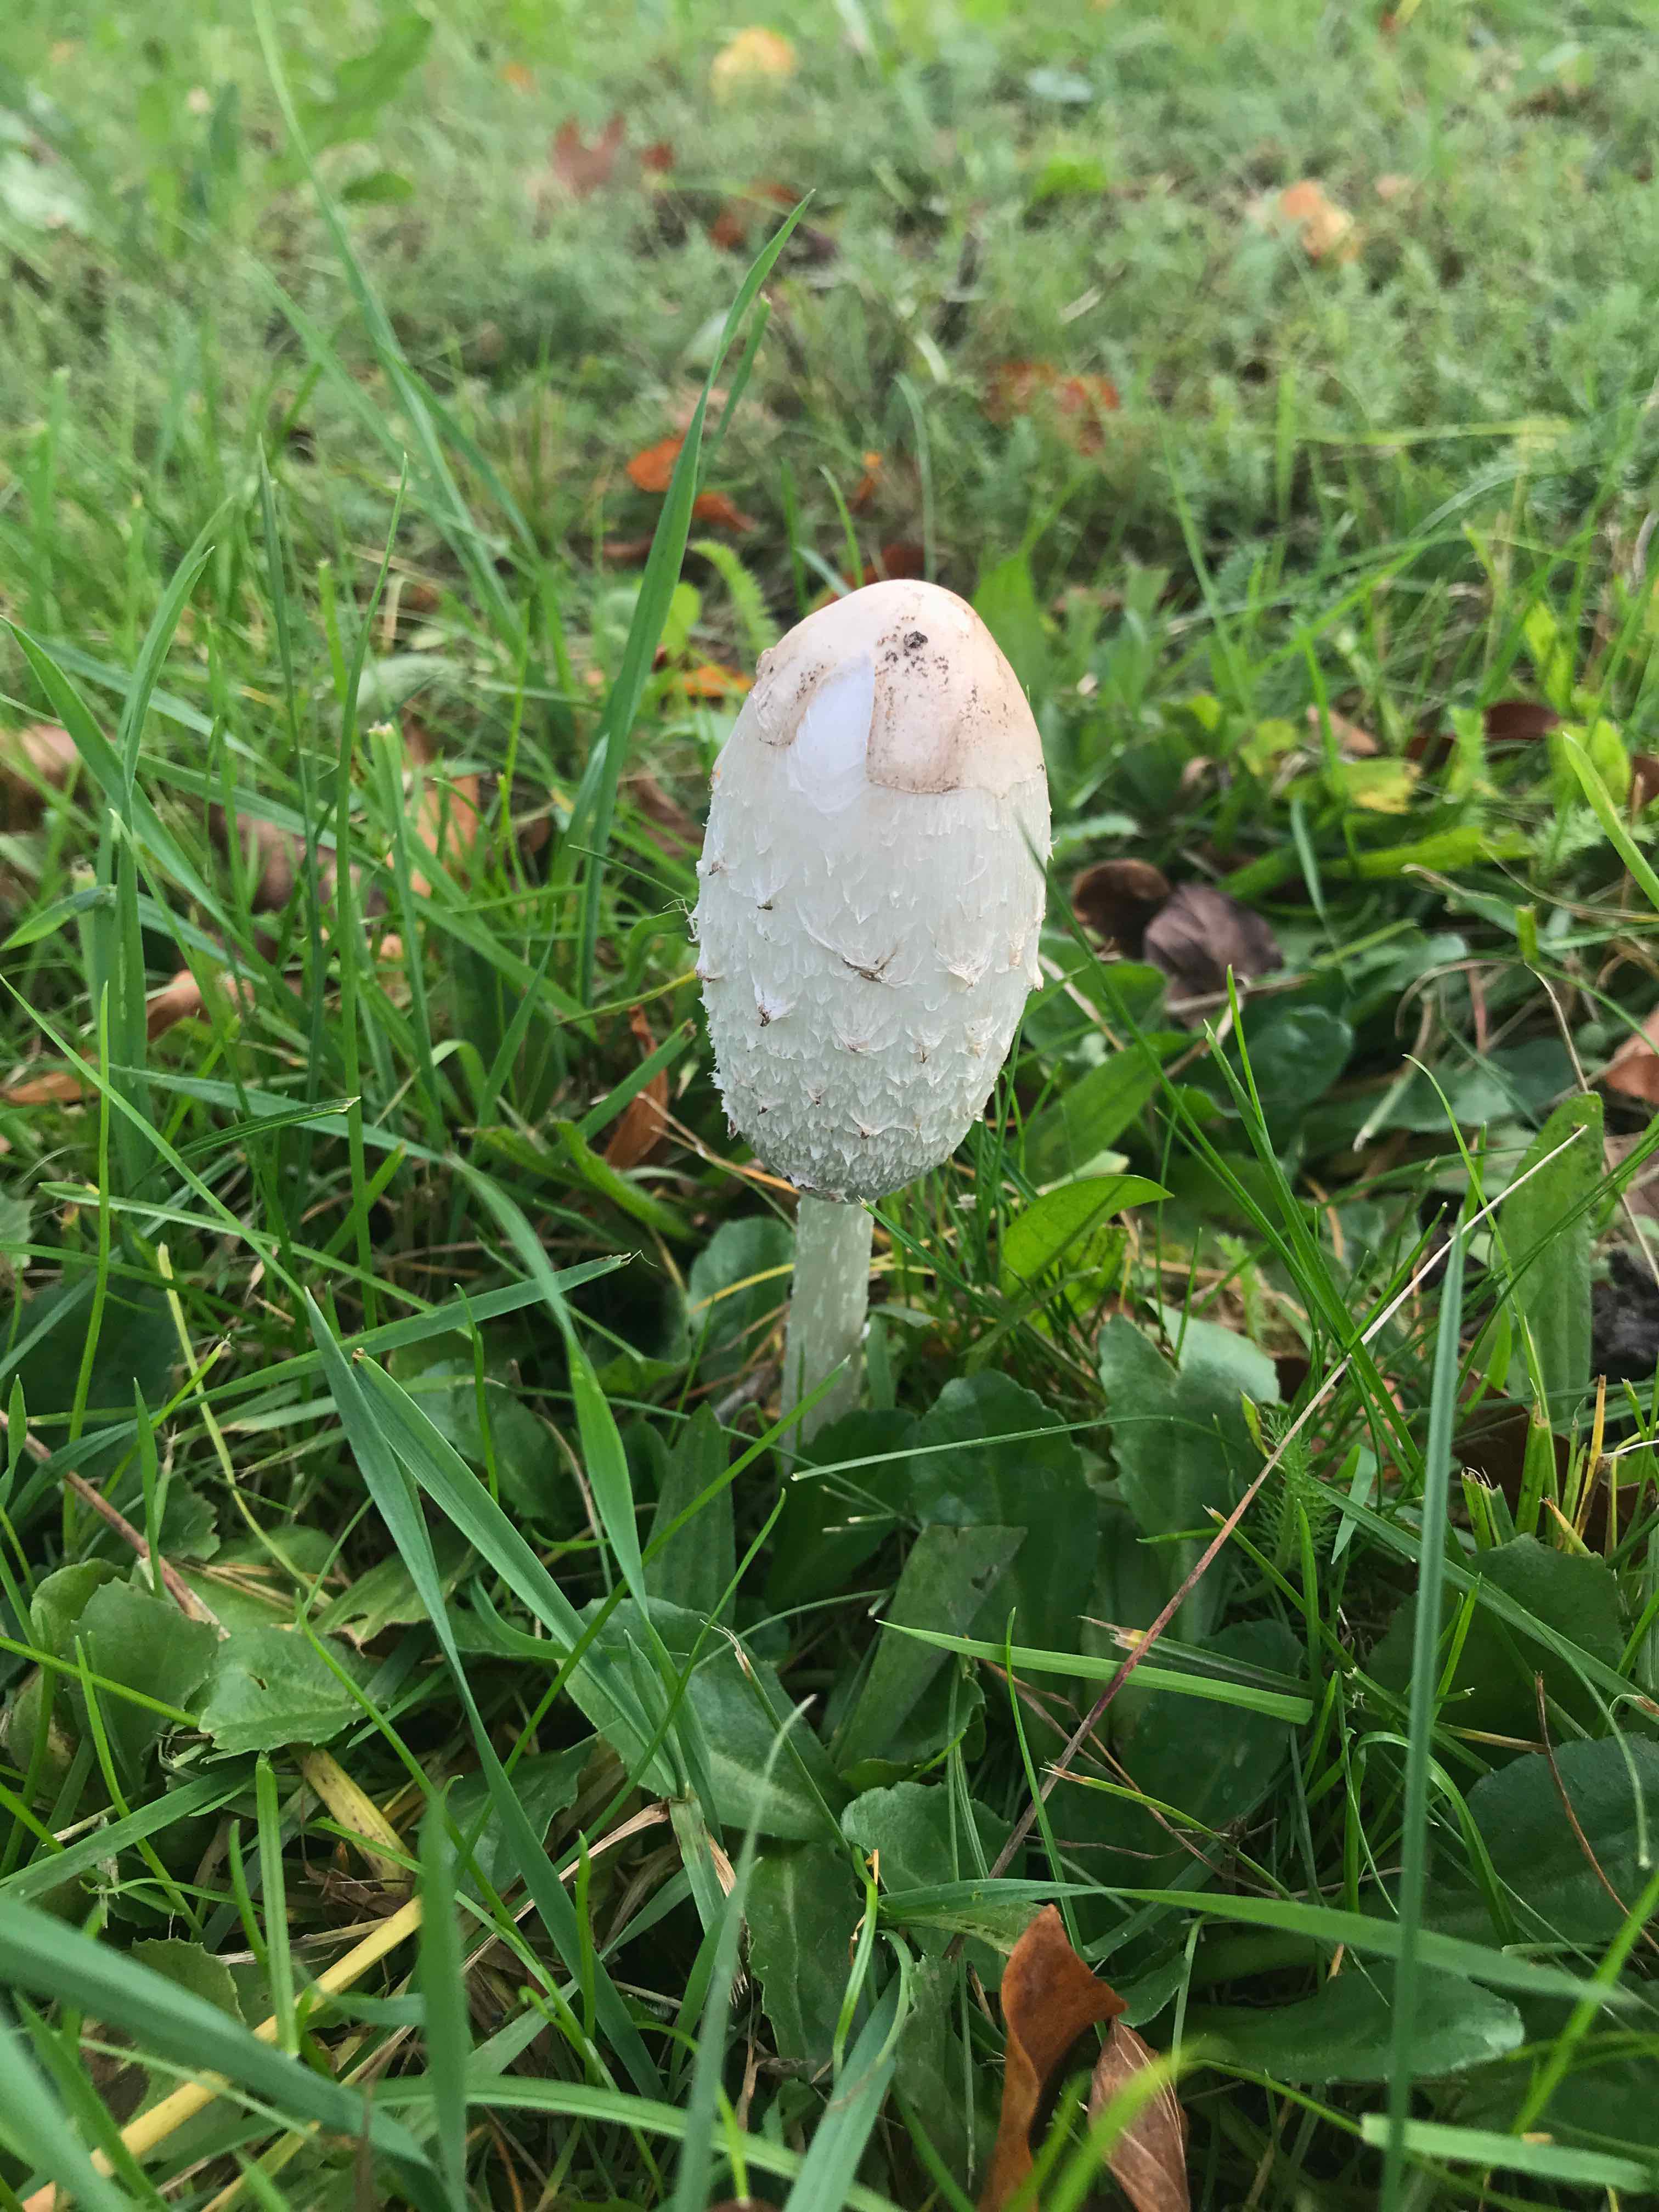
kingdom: Fungi
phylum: Basidiomycota
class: Agaricomycetes
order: Agaricales
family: Agaricaceae
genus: Coprinus
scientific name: Coprinus comatus
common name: stor parykhat
